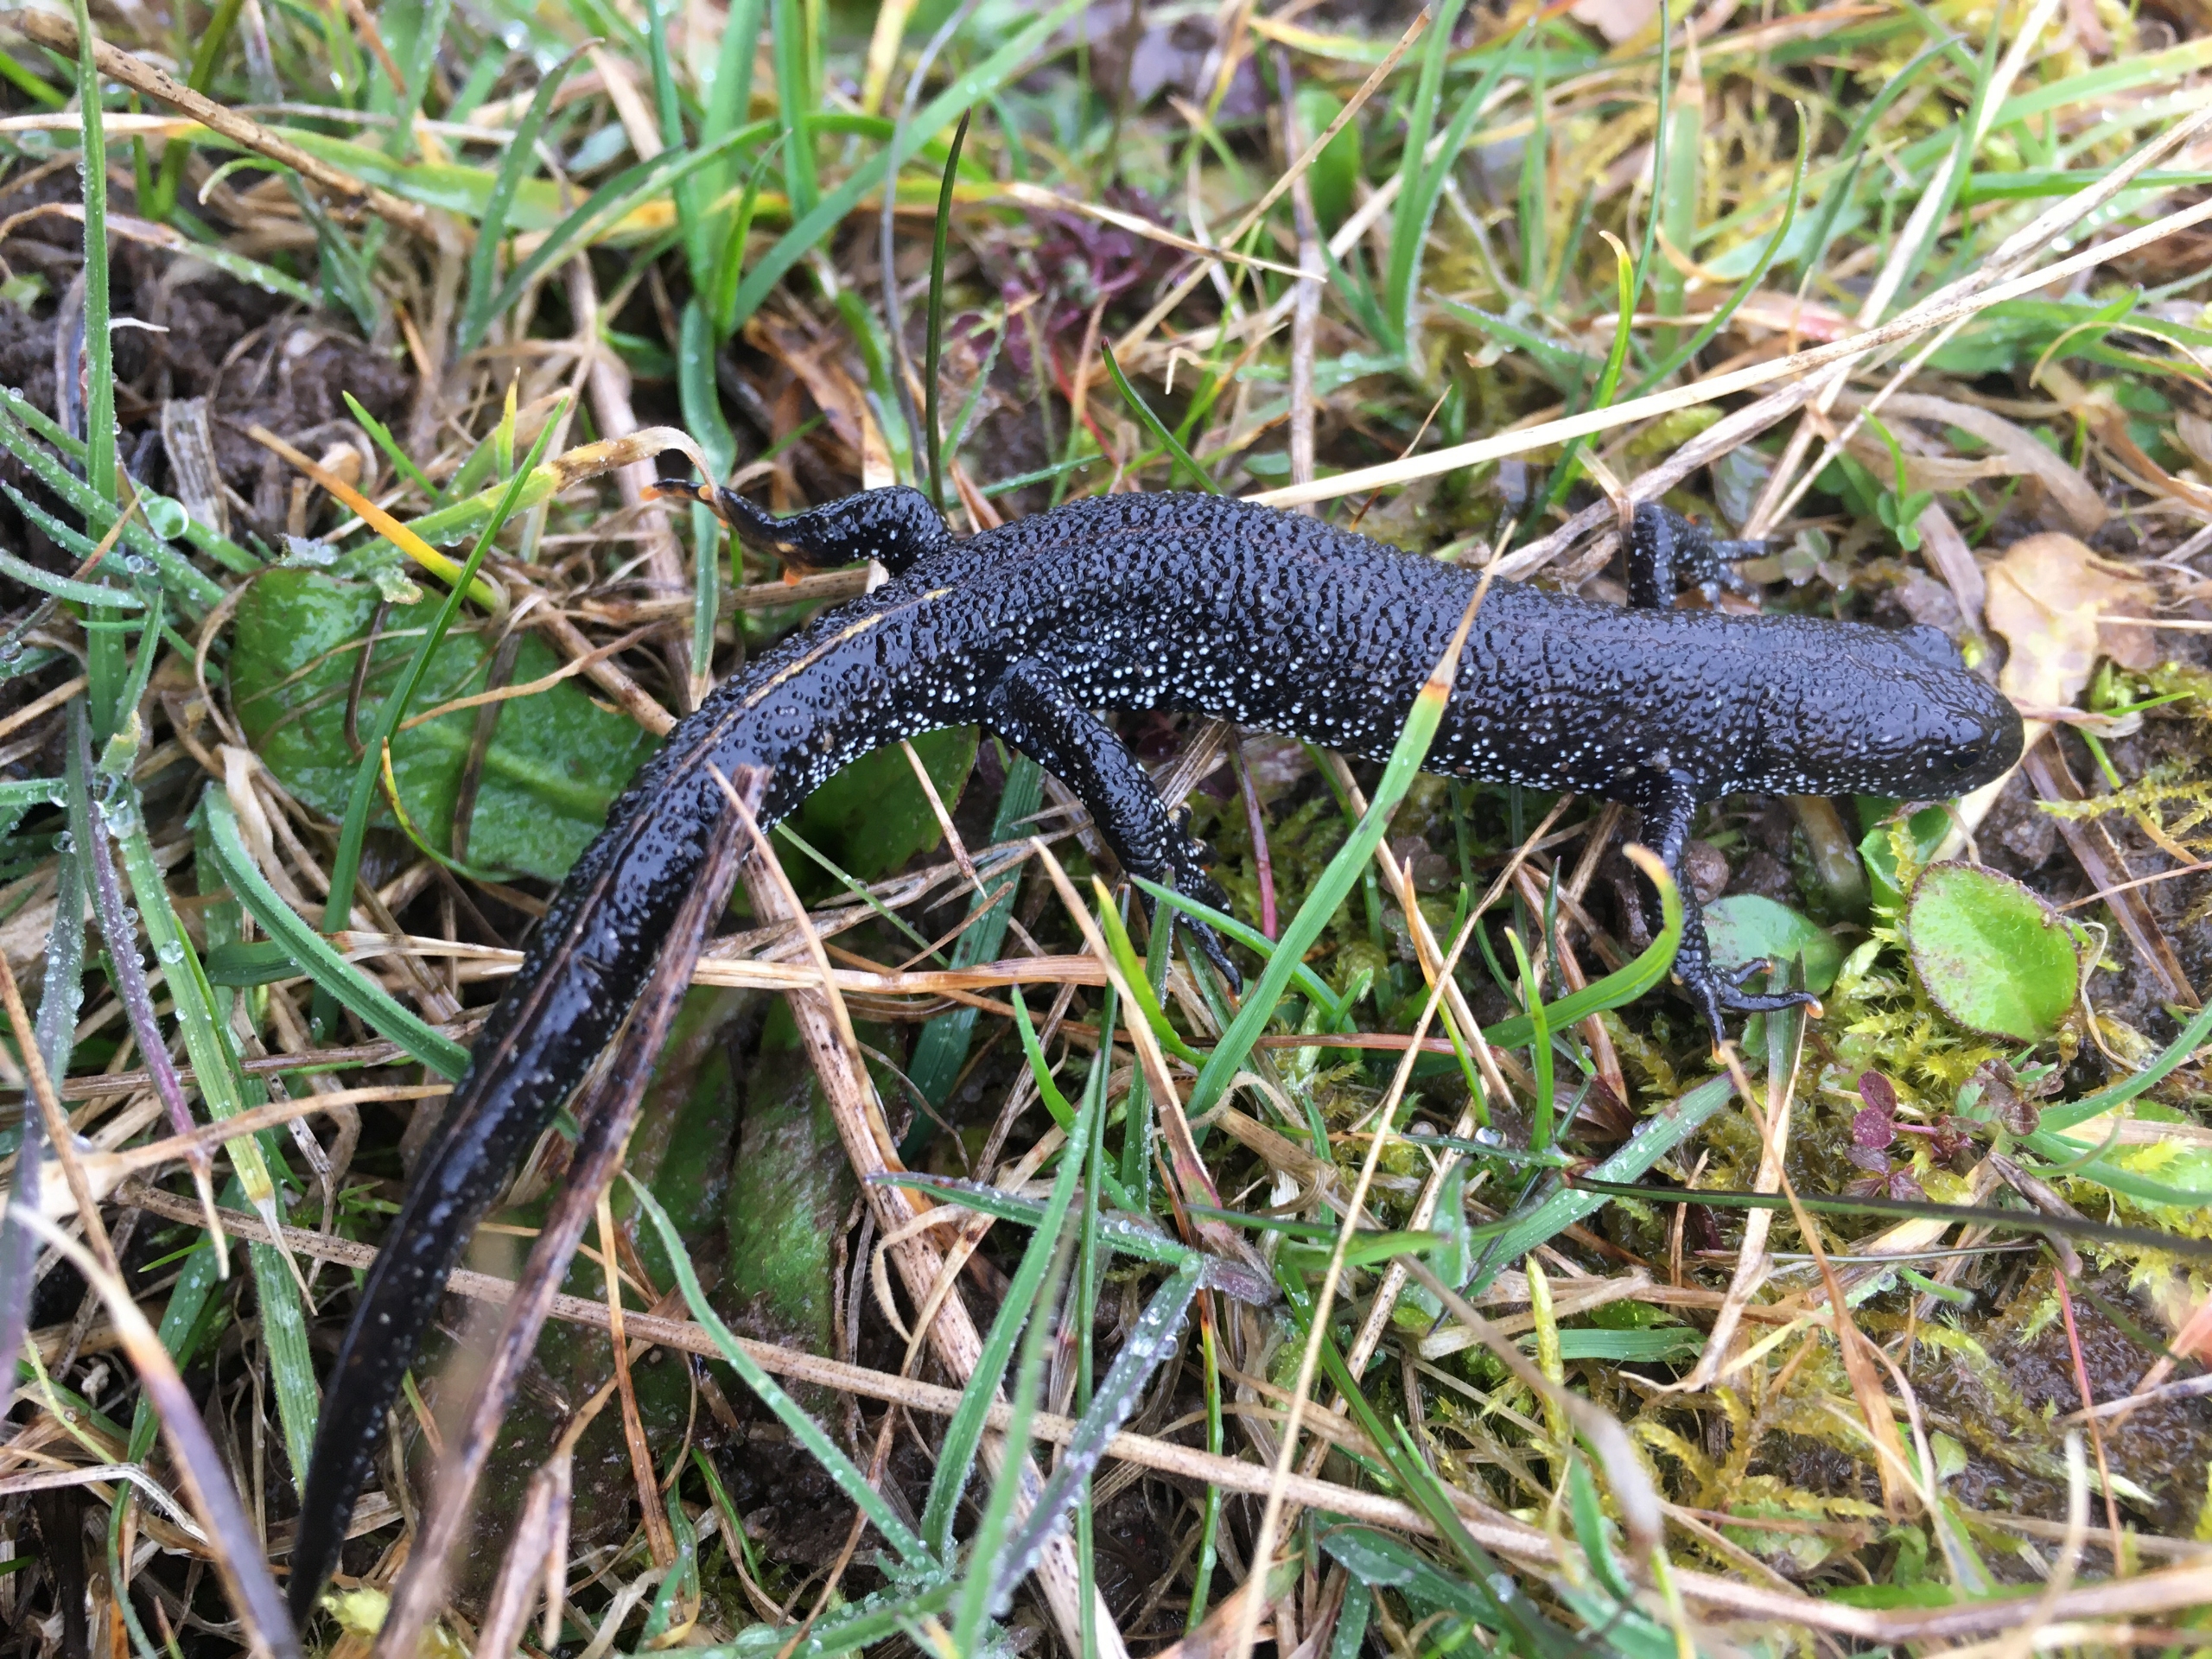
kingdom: Animalia
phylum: Chordata
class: Amphibia
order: Caudata
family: Salamandridae
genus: Triturus
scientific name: Triturus cristatus
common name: Stor vandsalamander
